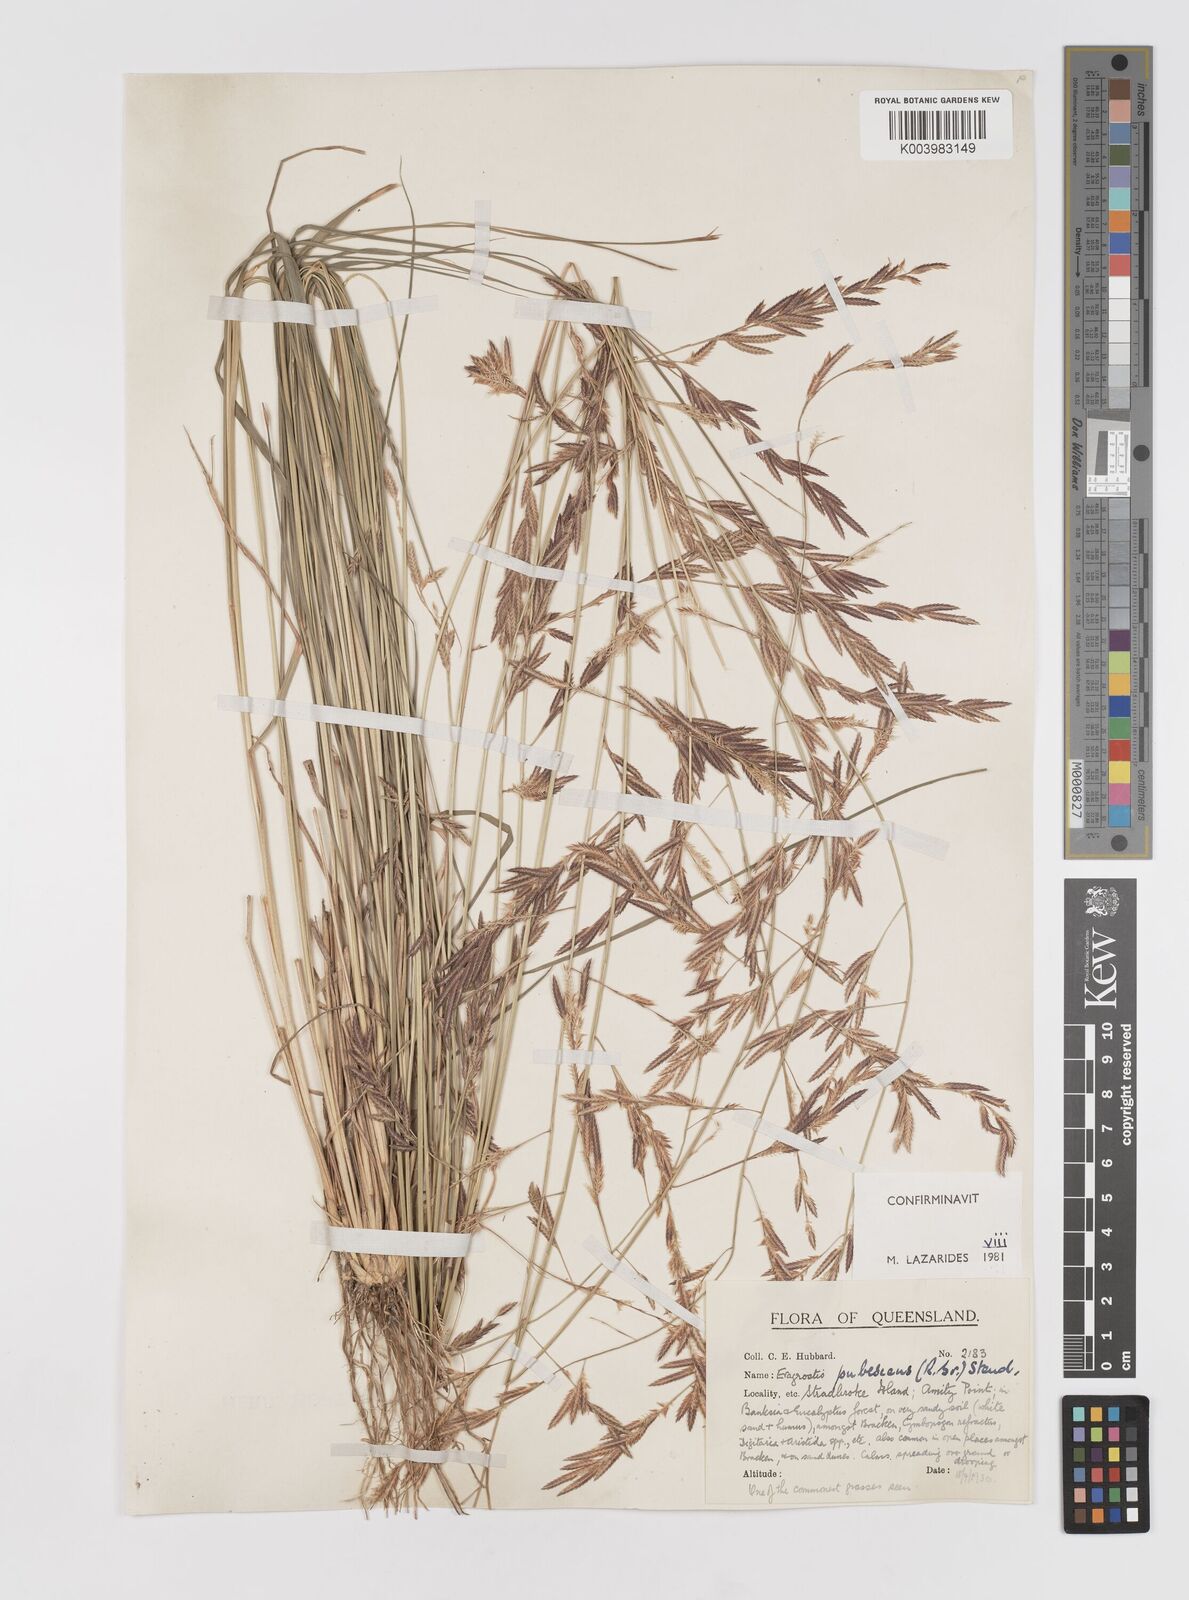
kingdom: Plantae
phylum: Tracheophyta
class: Liliopsida
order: Poales
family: Poaceae
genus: Eragrostis
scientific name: Eragrostis pubescens
